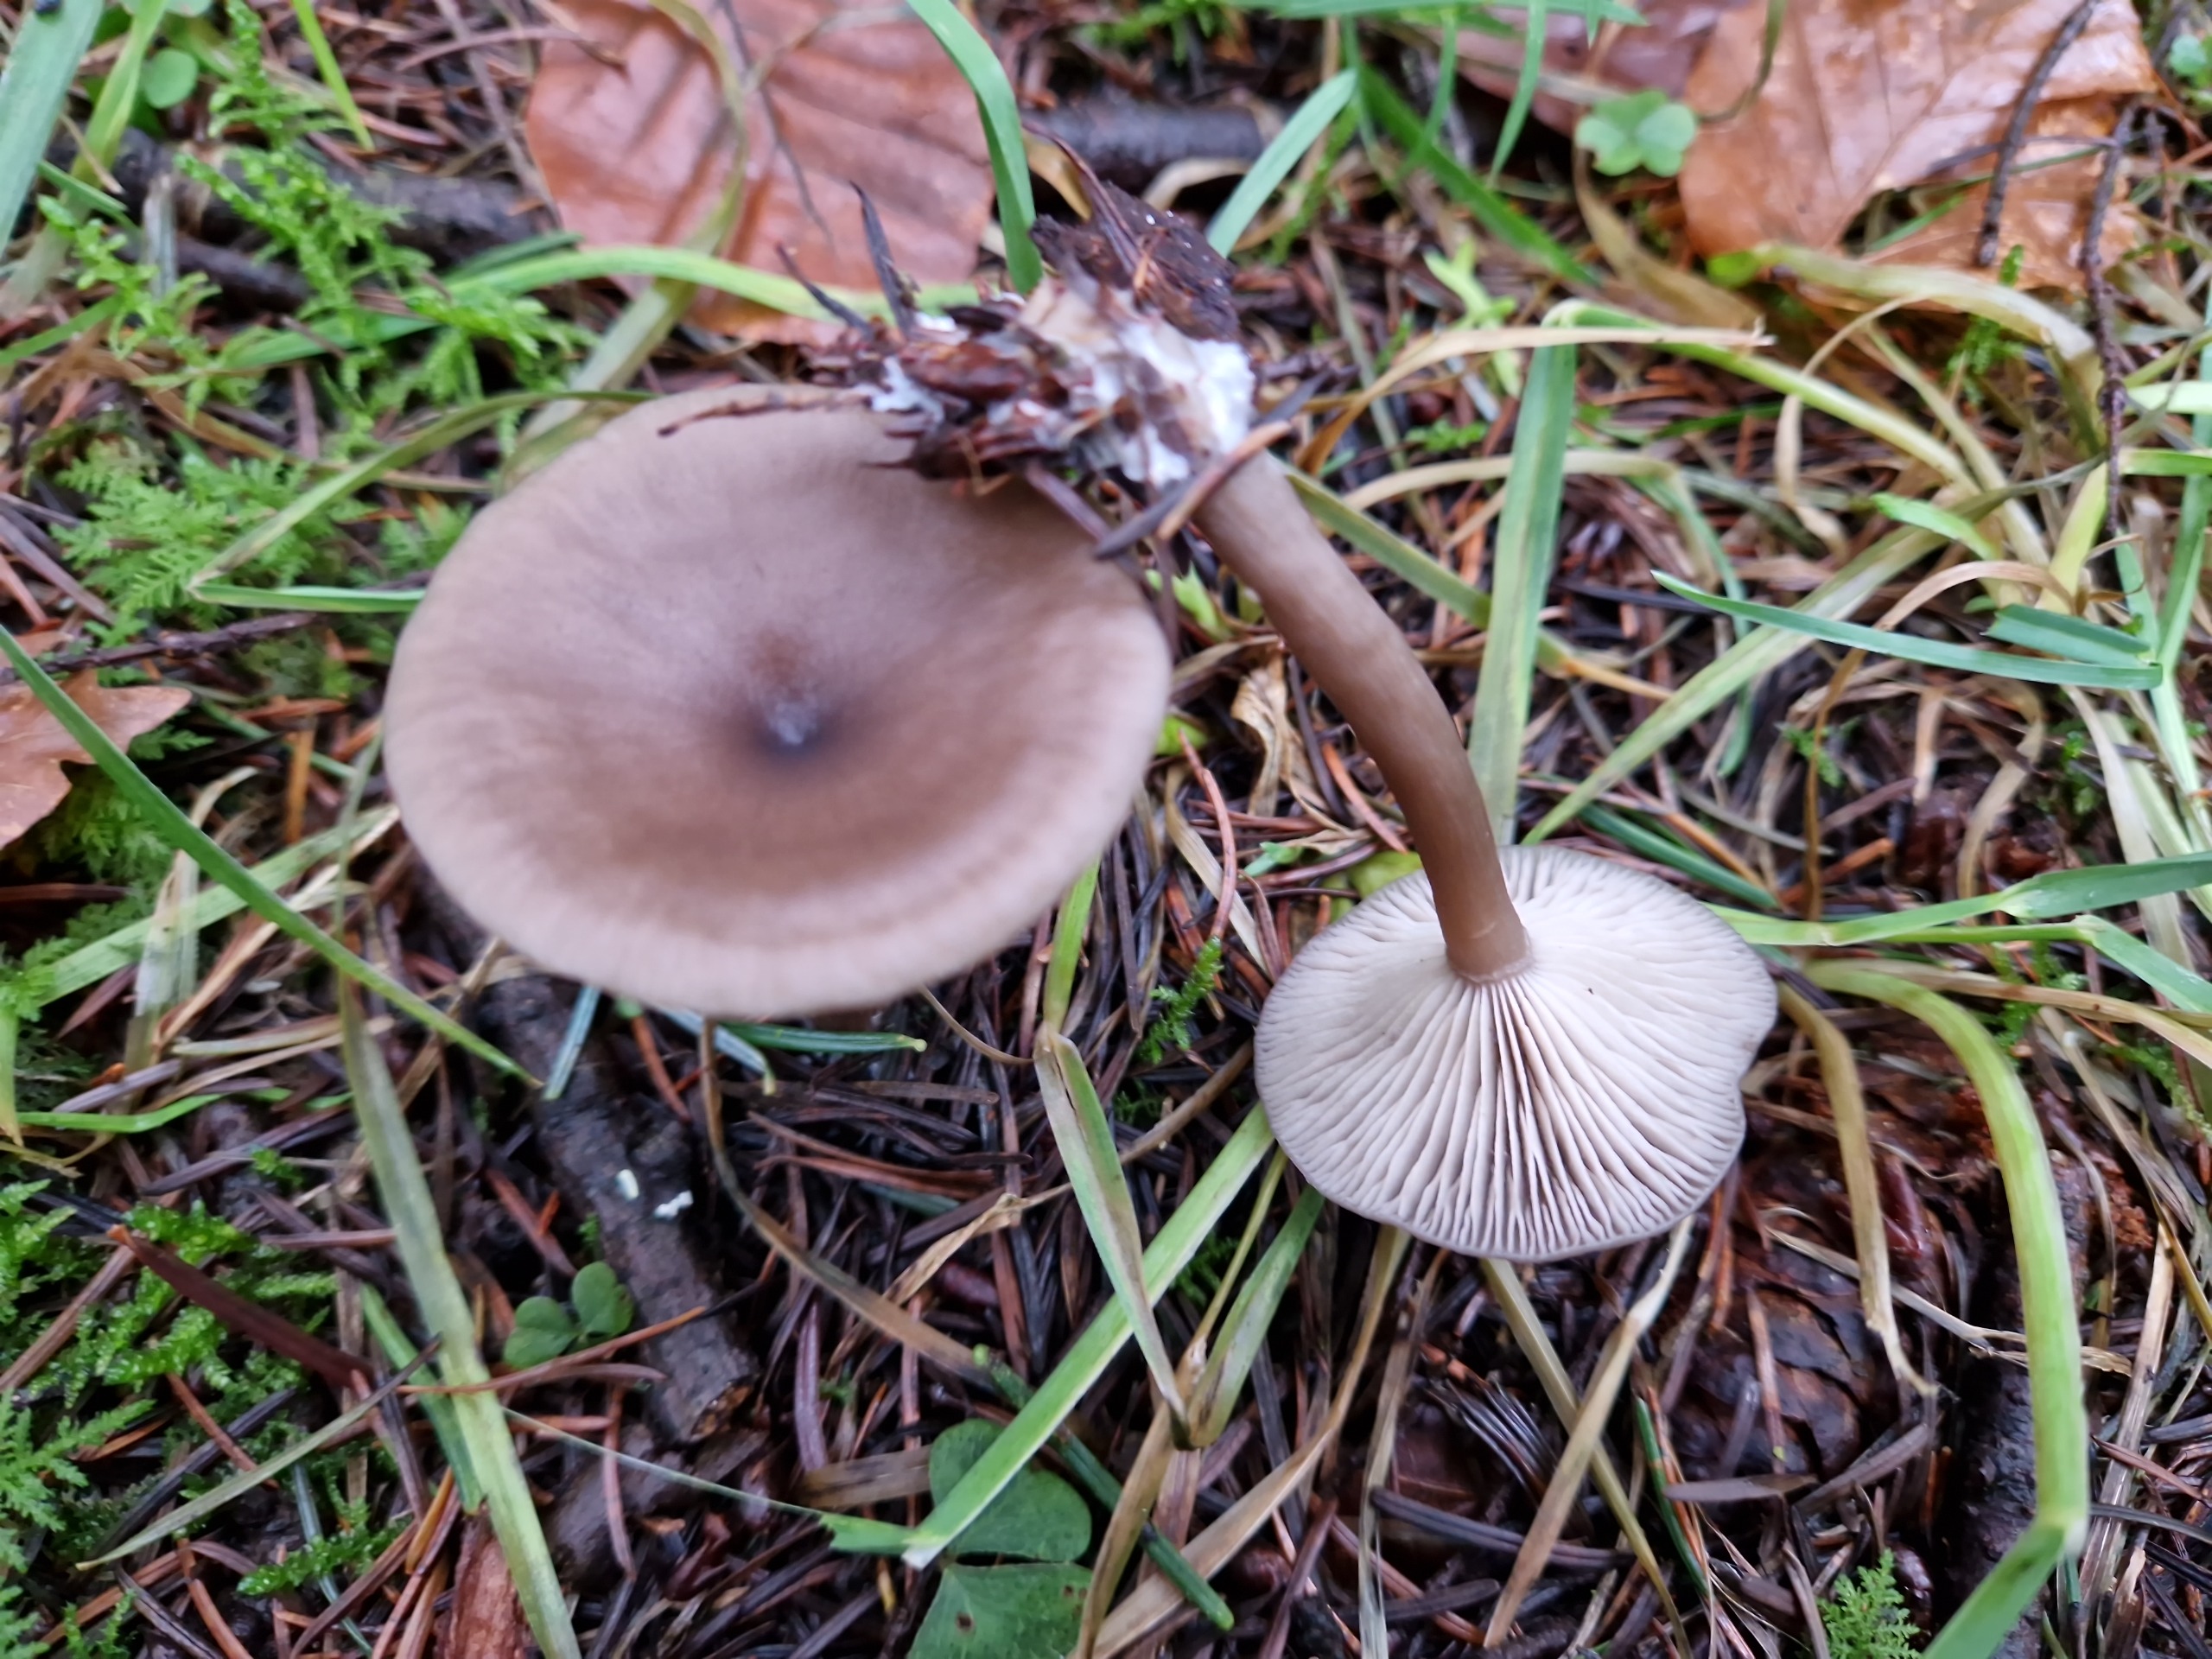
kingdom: Fungi
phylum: Basidiomycota
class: Agaricomycetes
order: Agaricales
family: Pseudoclitocybaceae
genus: Pseudoclitocybe
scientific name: Pseudoclitocybe cyathiformis
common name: Almindelig bægertragthat
